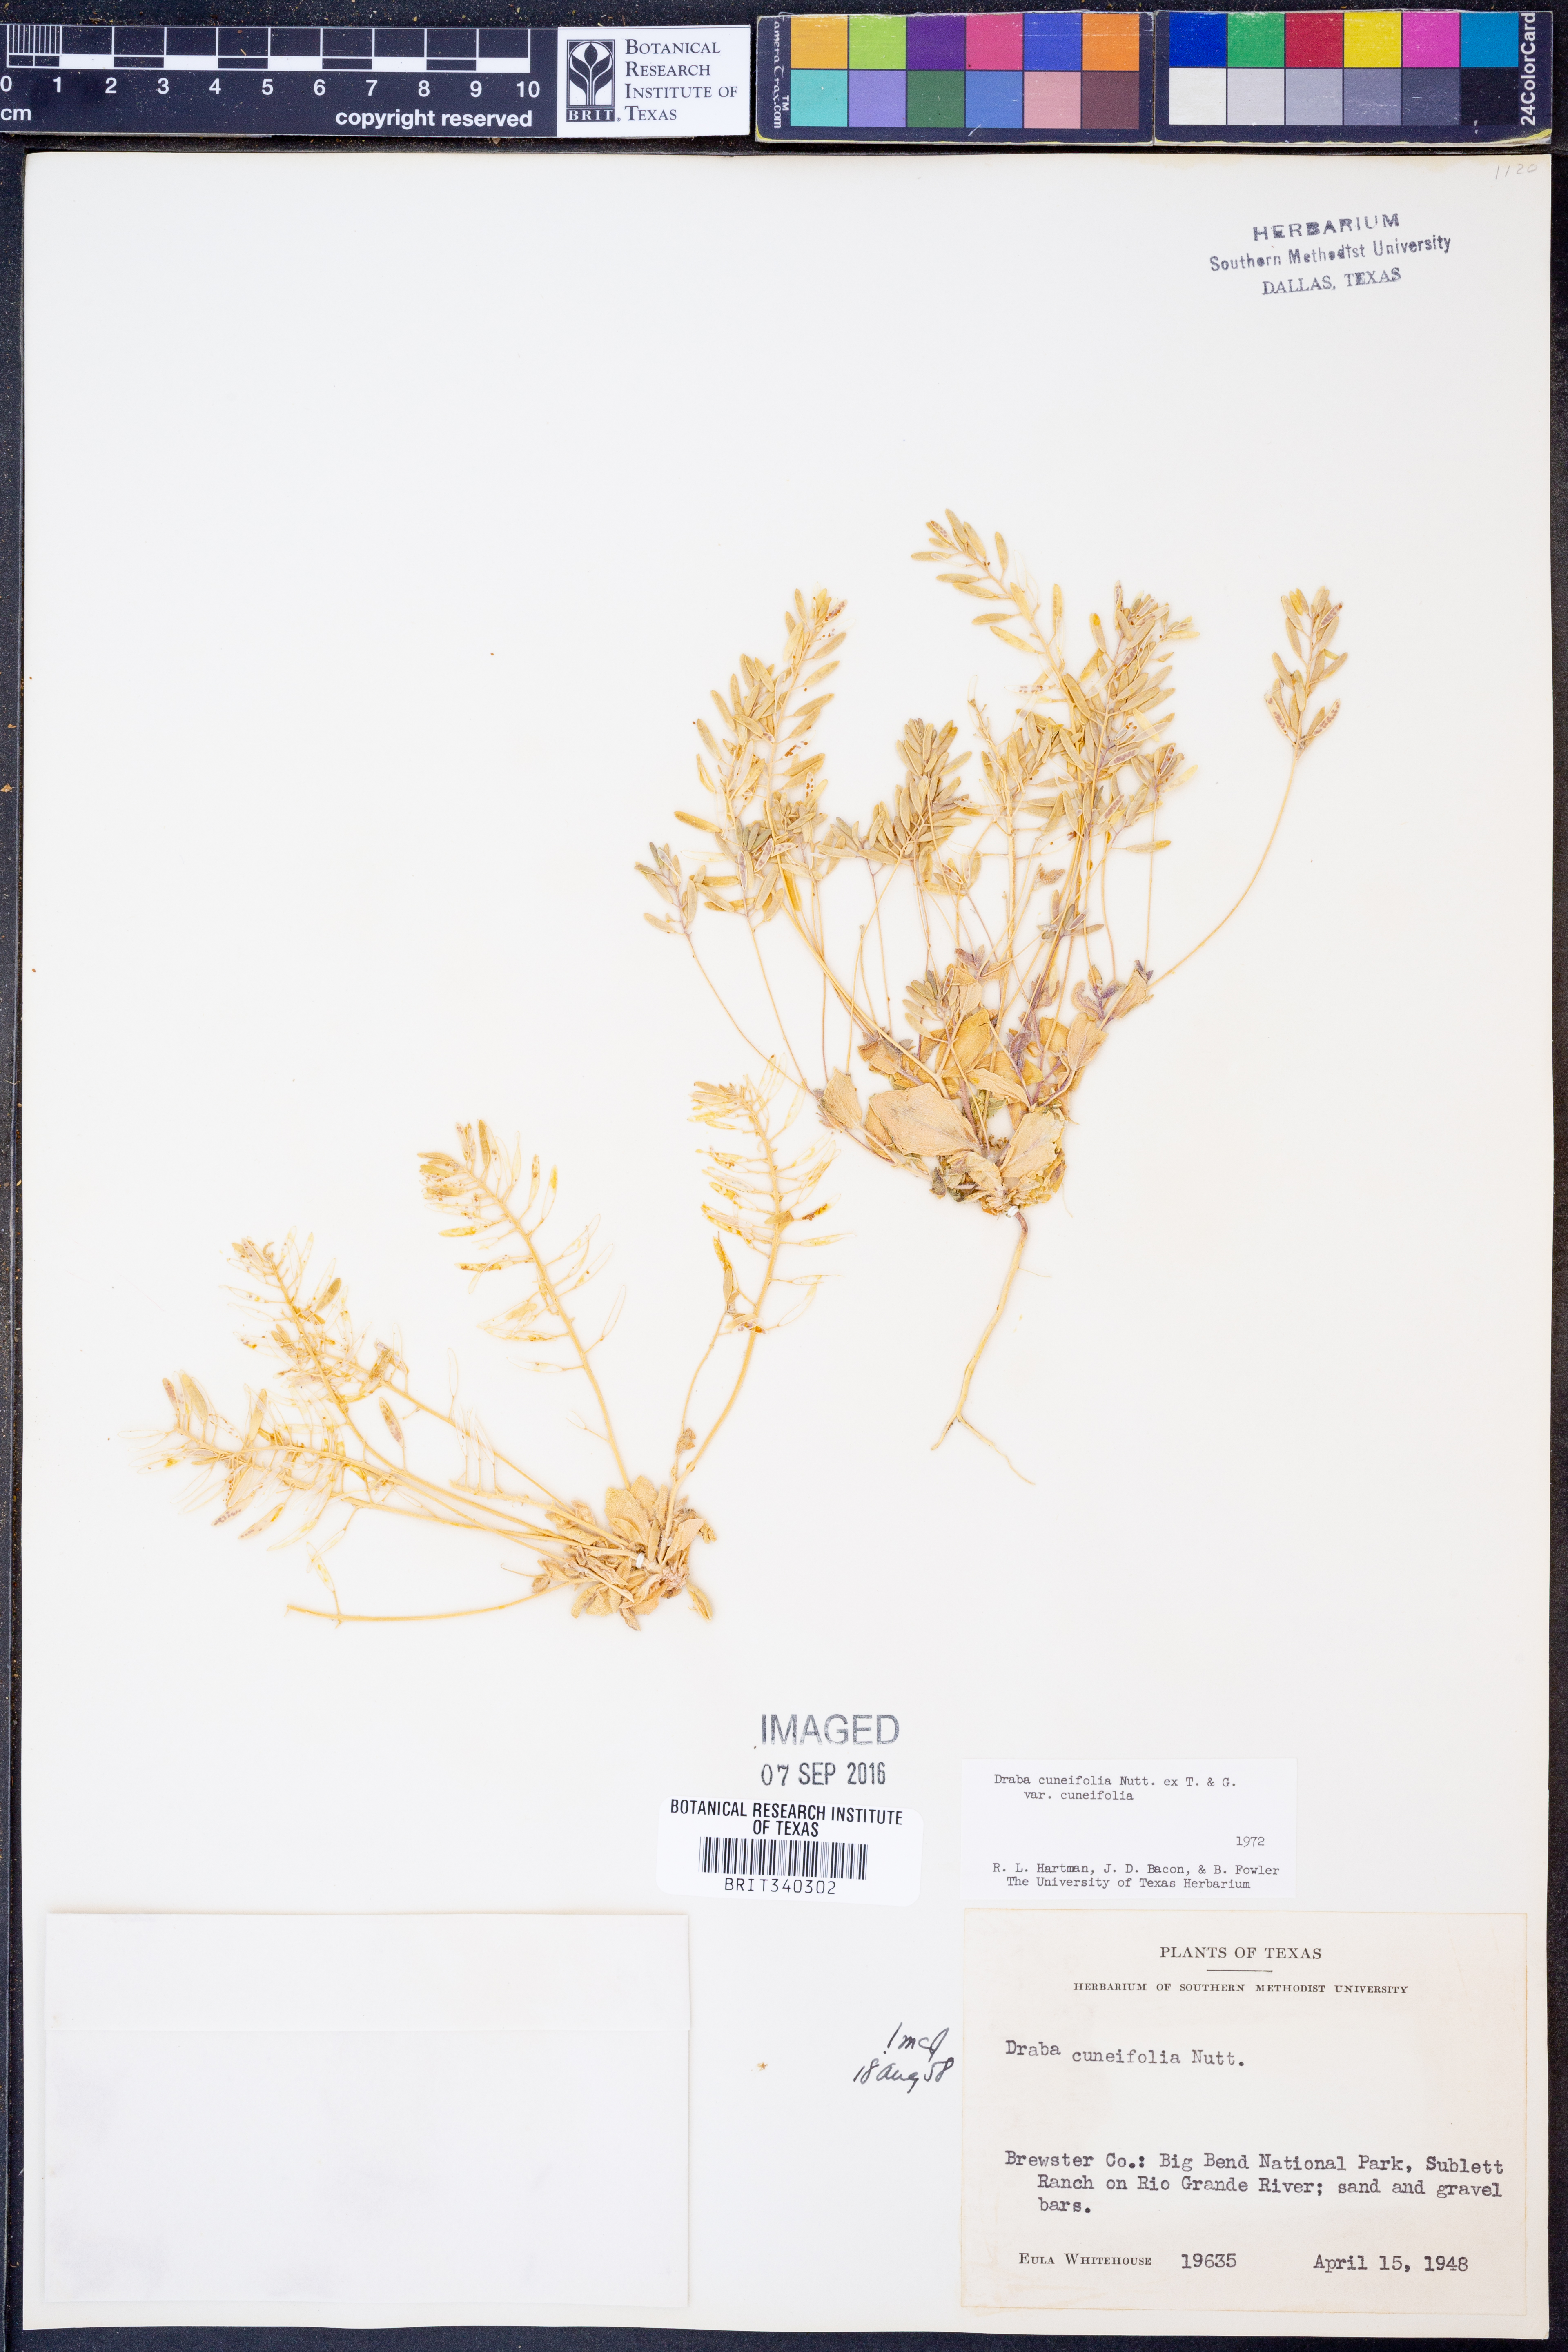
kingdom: Plantae
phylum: Tracheophyta
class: Magnoliopsida
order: Brassicales
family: Brassicaceae
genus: Tomostima
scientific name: Tomostima cuneifolia
